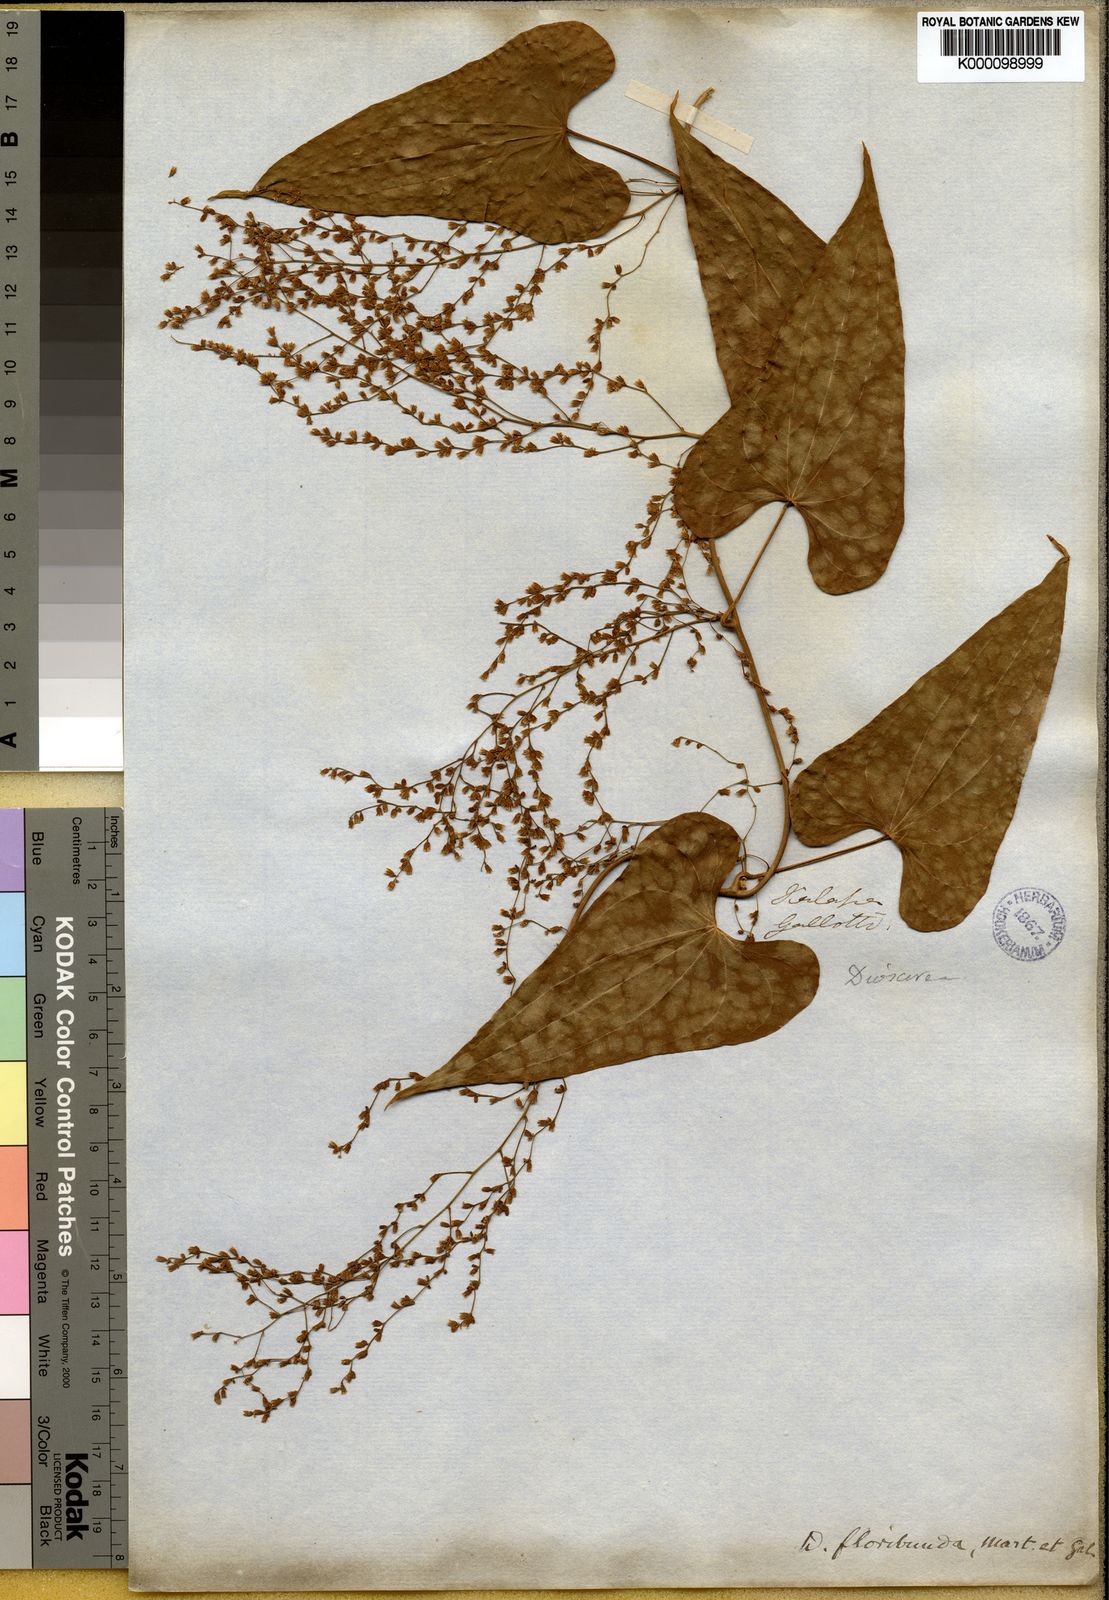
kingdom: Plantae
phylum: Tracheophyta
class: Liliopsida
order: Dioscoreales
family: Dioscoreaceae
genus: Dioscorea
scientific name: Dioscorea floribunda
